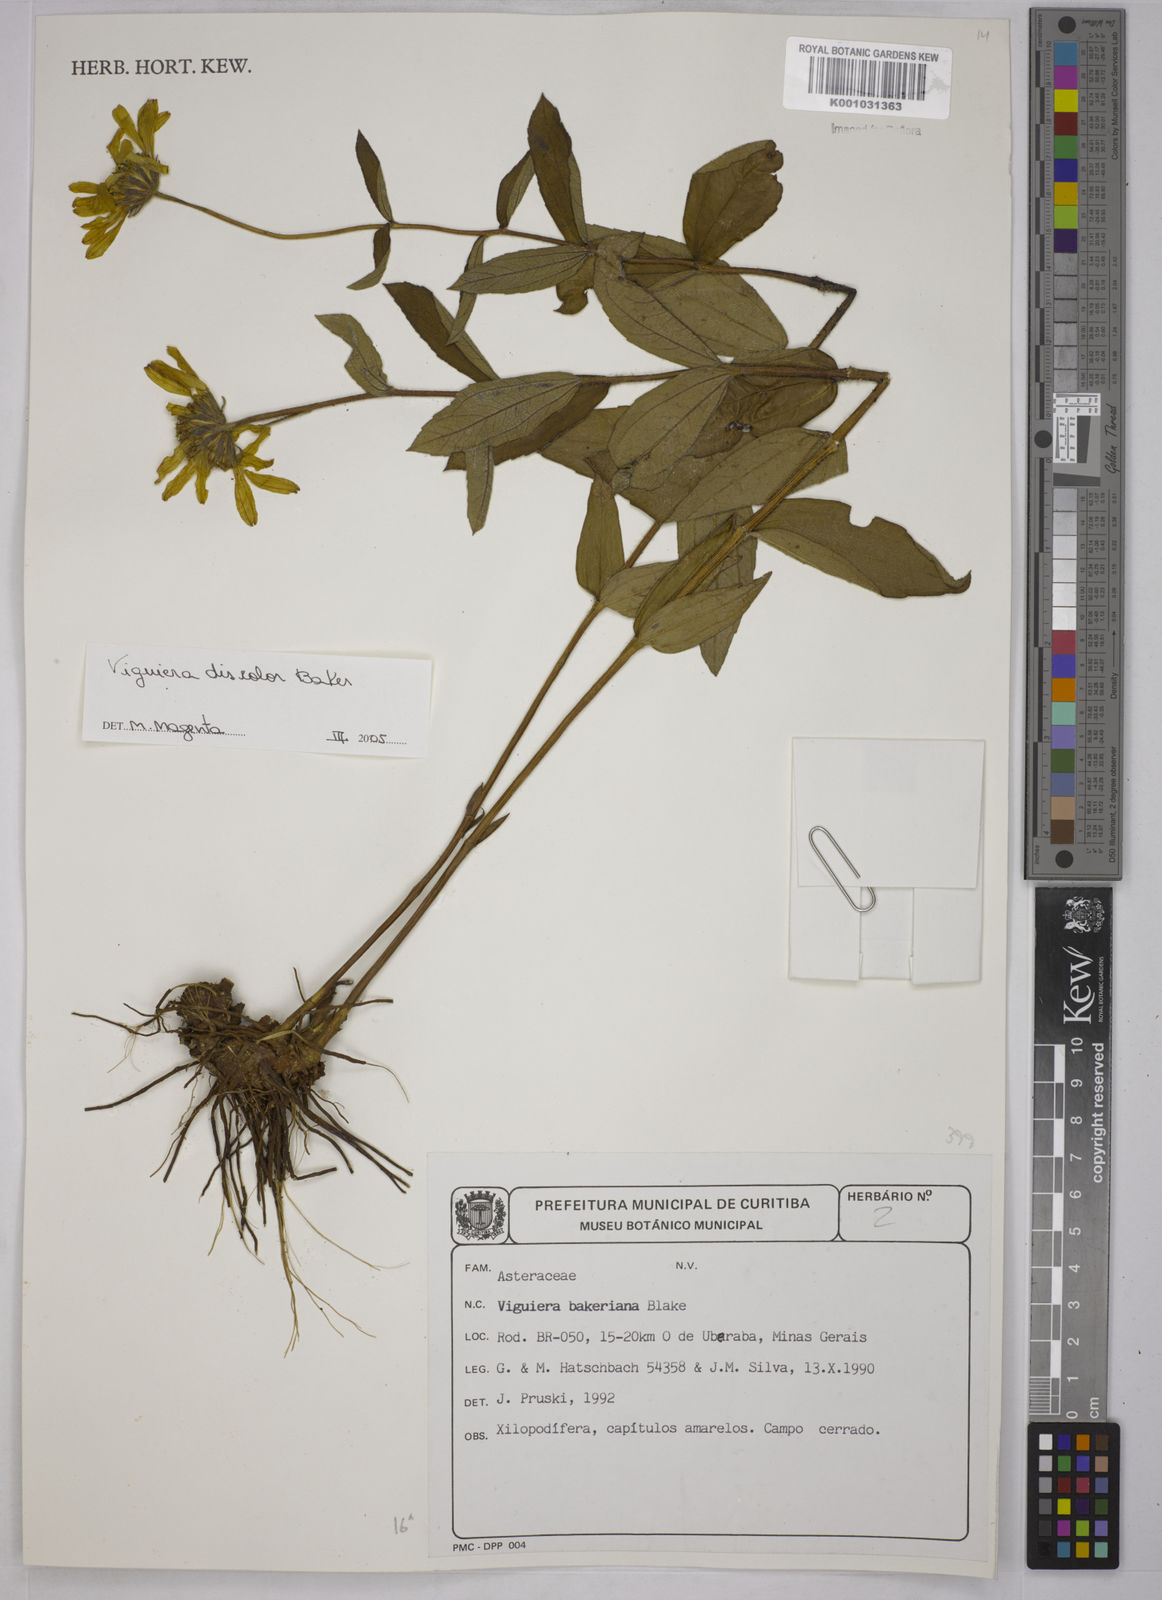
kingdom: Plantae
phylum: Tracheophyta
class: Magnoliopsida
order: Asterales
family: Asteraceae
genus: Aldama
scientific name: Aldama discolor
